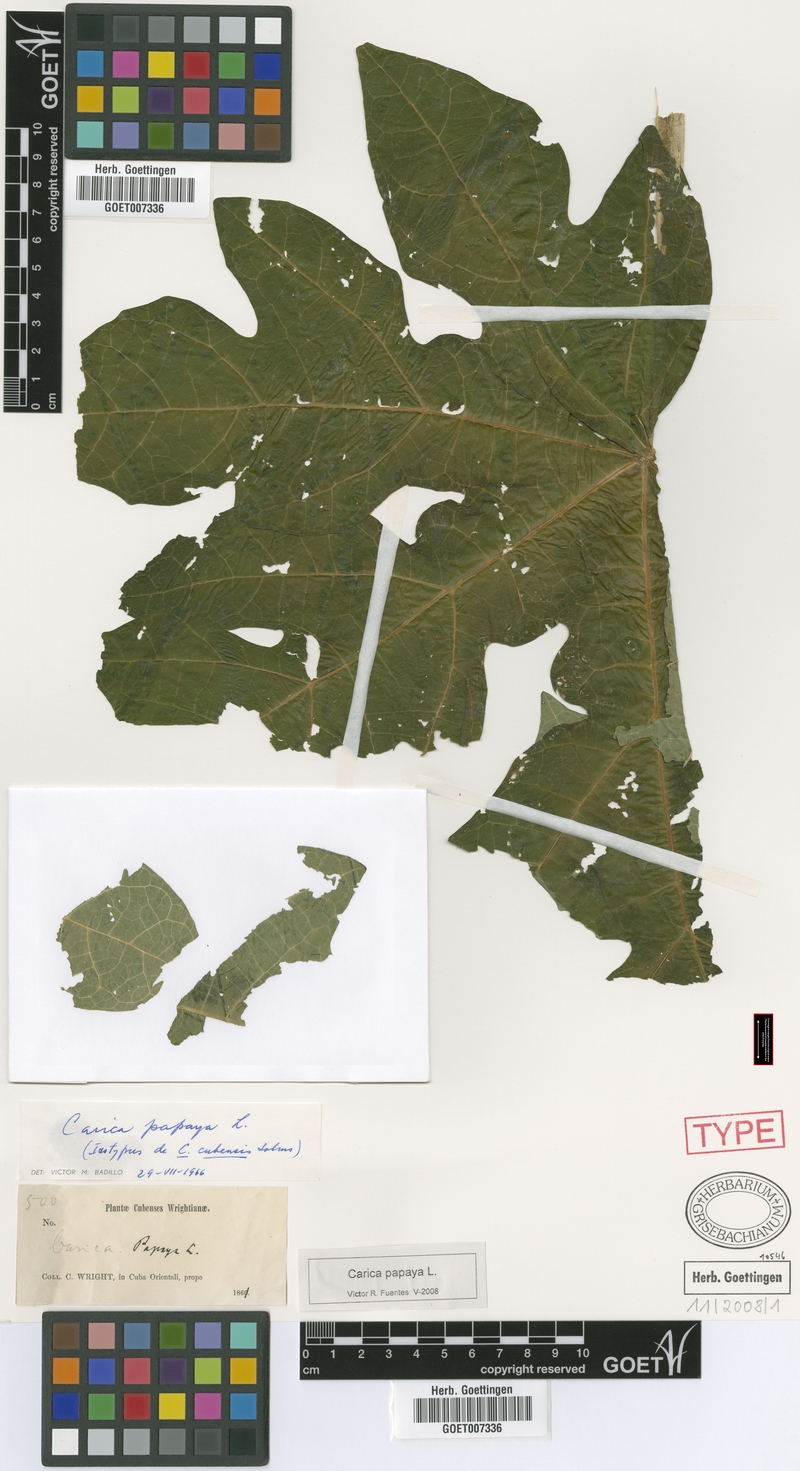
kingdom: Plantae
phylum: Tracheophyta
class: Magnoliopsida
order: Brassicales
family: Caricaceae
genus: Carica
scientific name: Carica papaya
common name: Papaya
